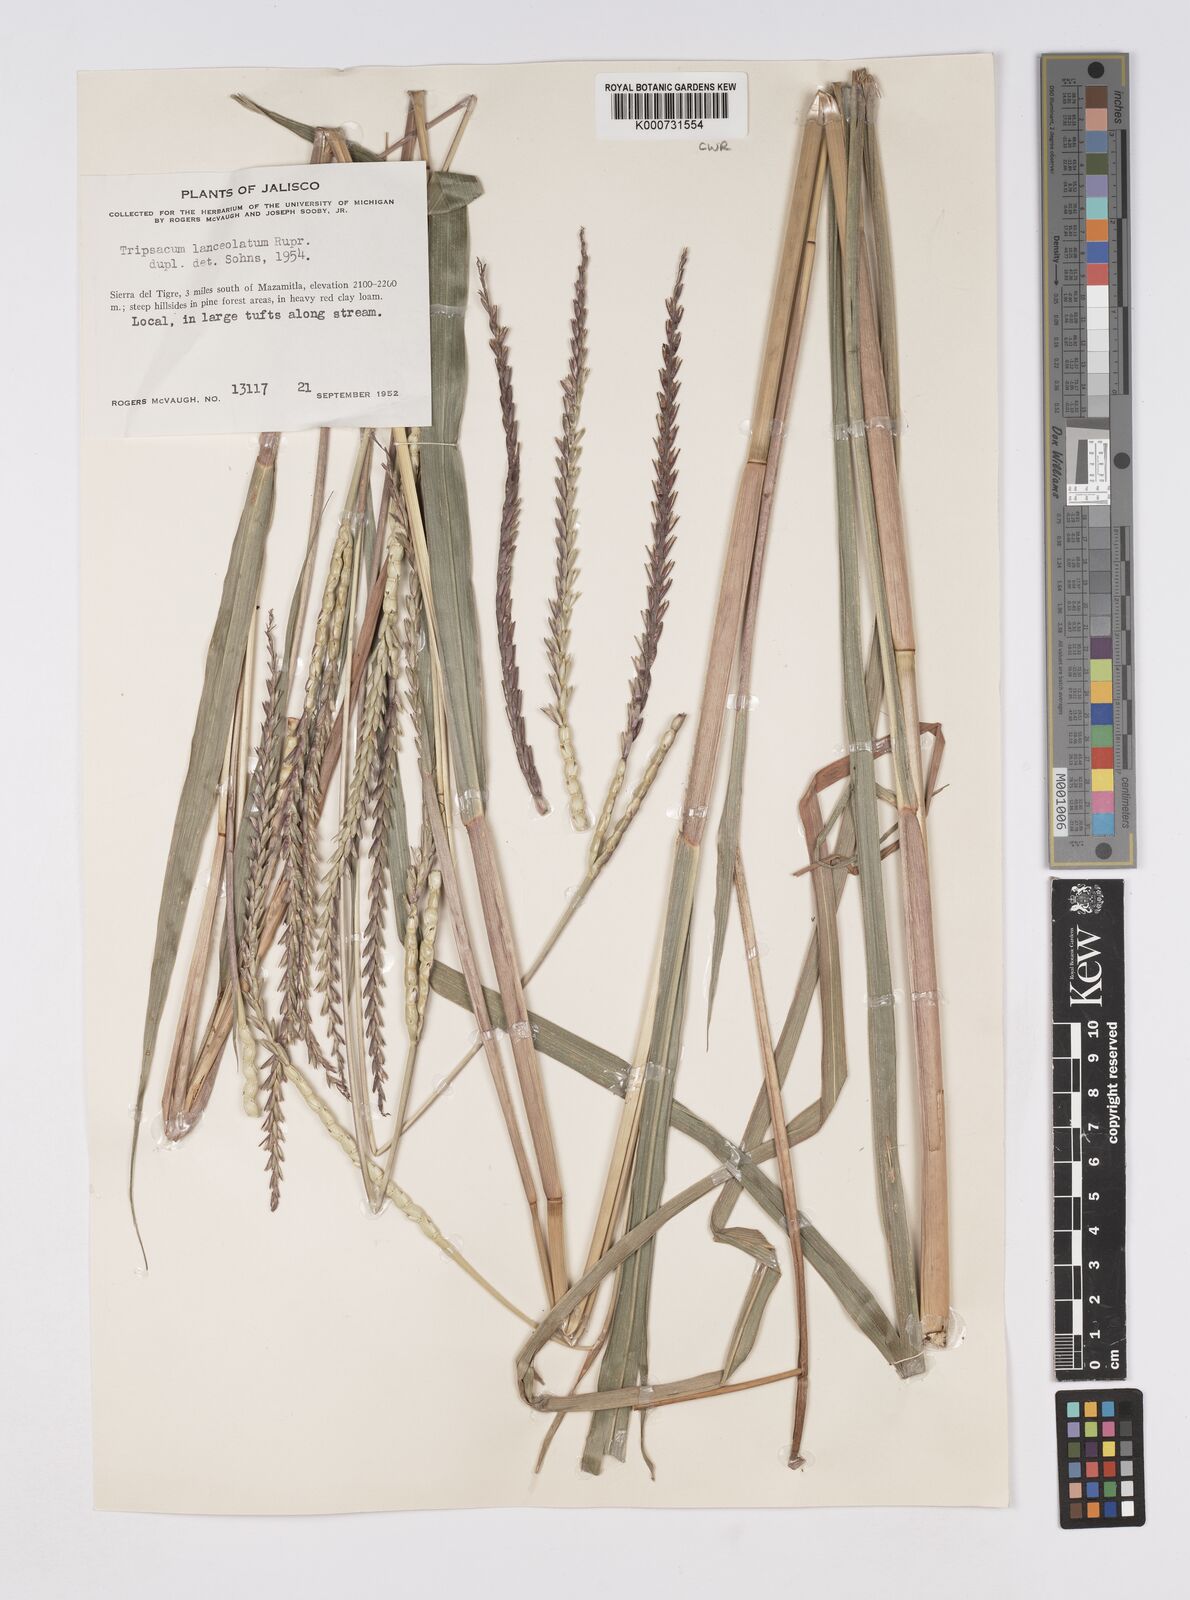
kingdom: Plantae
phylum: Tracheophyta
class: Liliopsida
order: Poales
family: Poaceae
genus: Tripsacum
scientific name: Tripsacum
